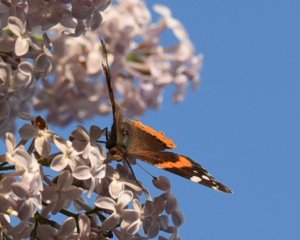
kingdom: Animalia
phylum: Arthropoda
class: Insecta
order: Lepidoptera
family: Nymphalidae
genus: Vanessa
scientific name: Vanessa atalanta
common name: Red Admiral
